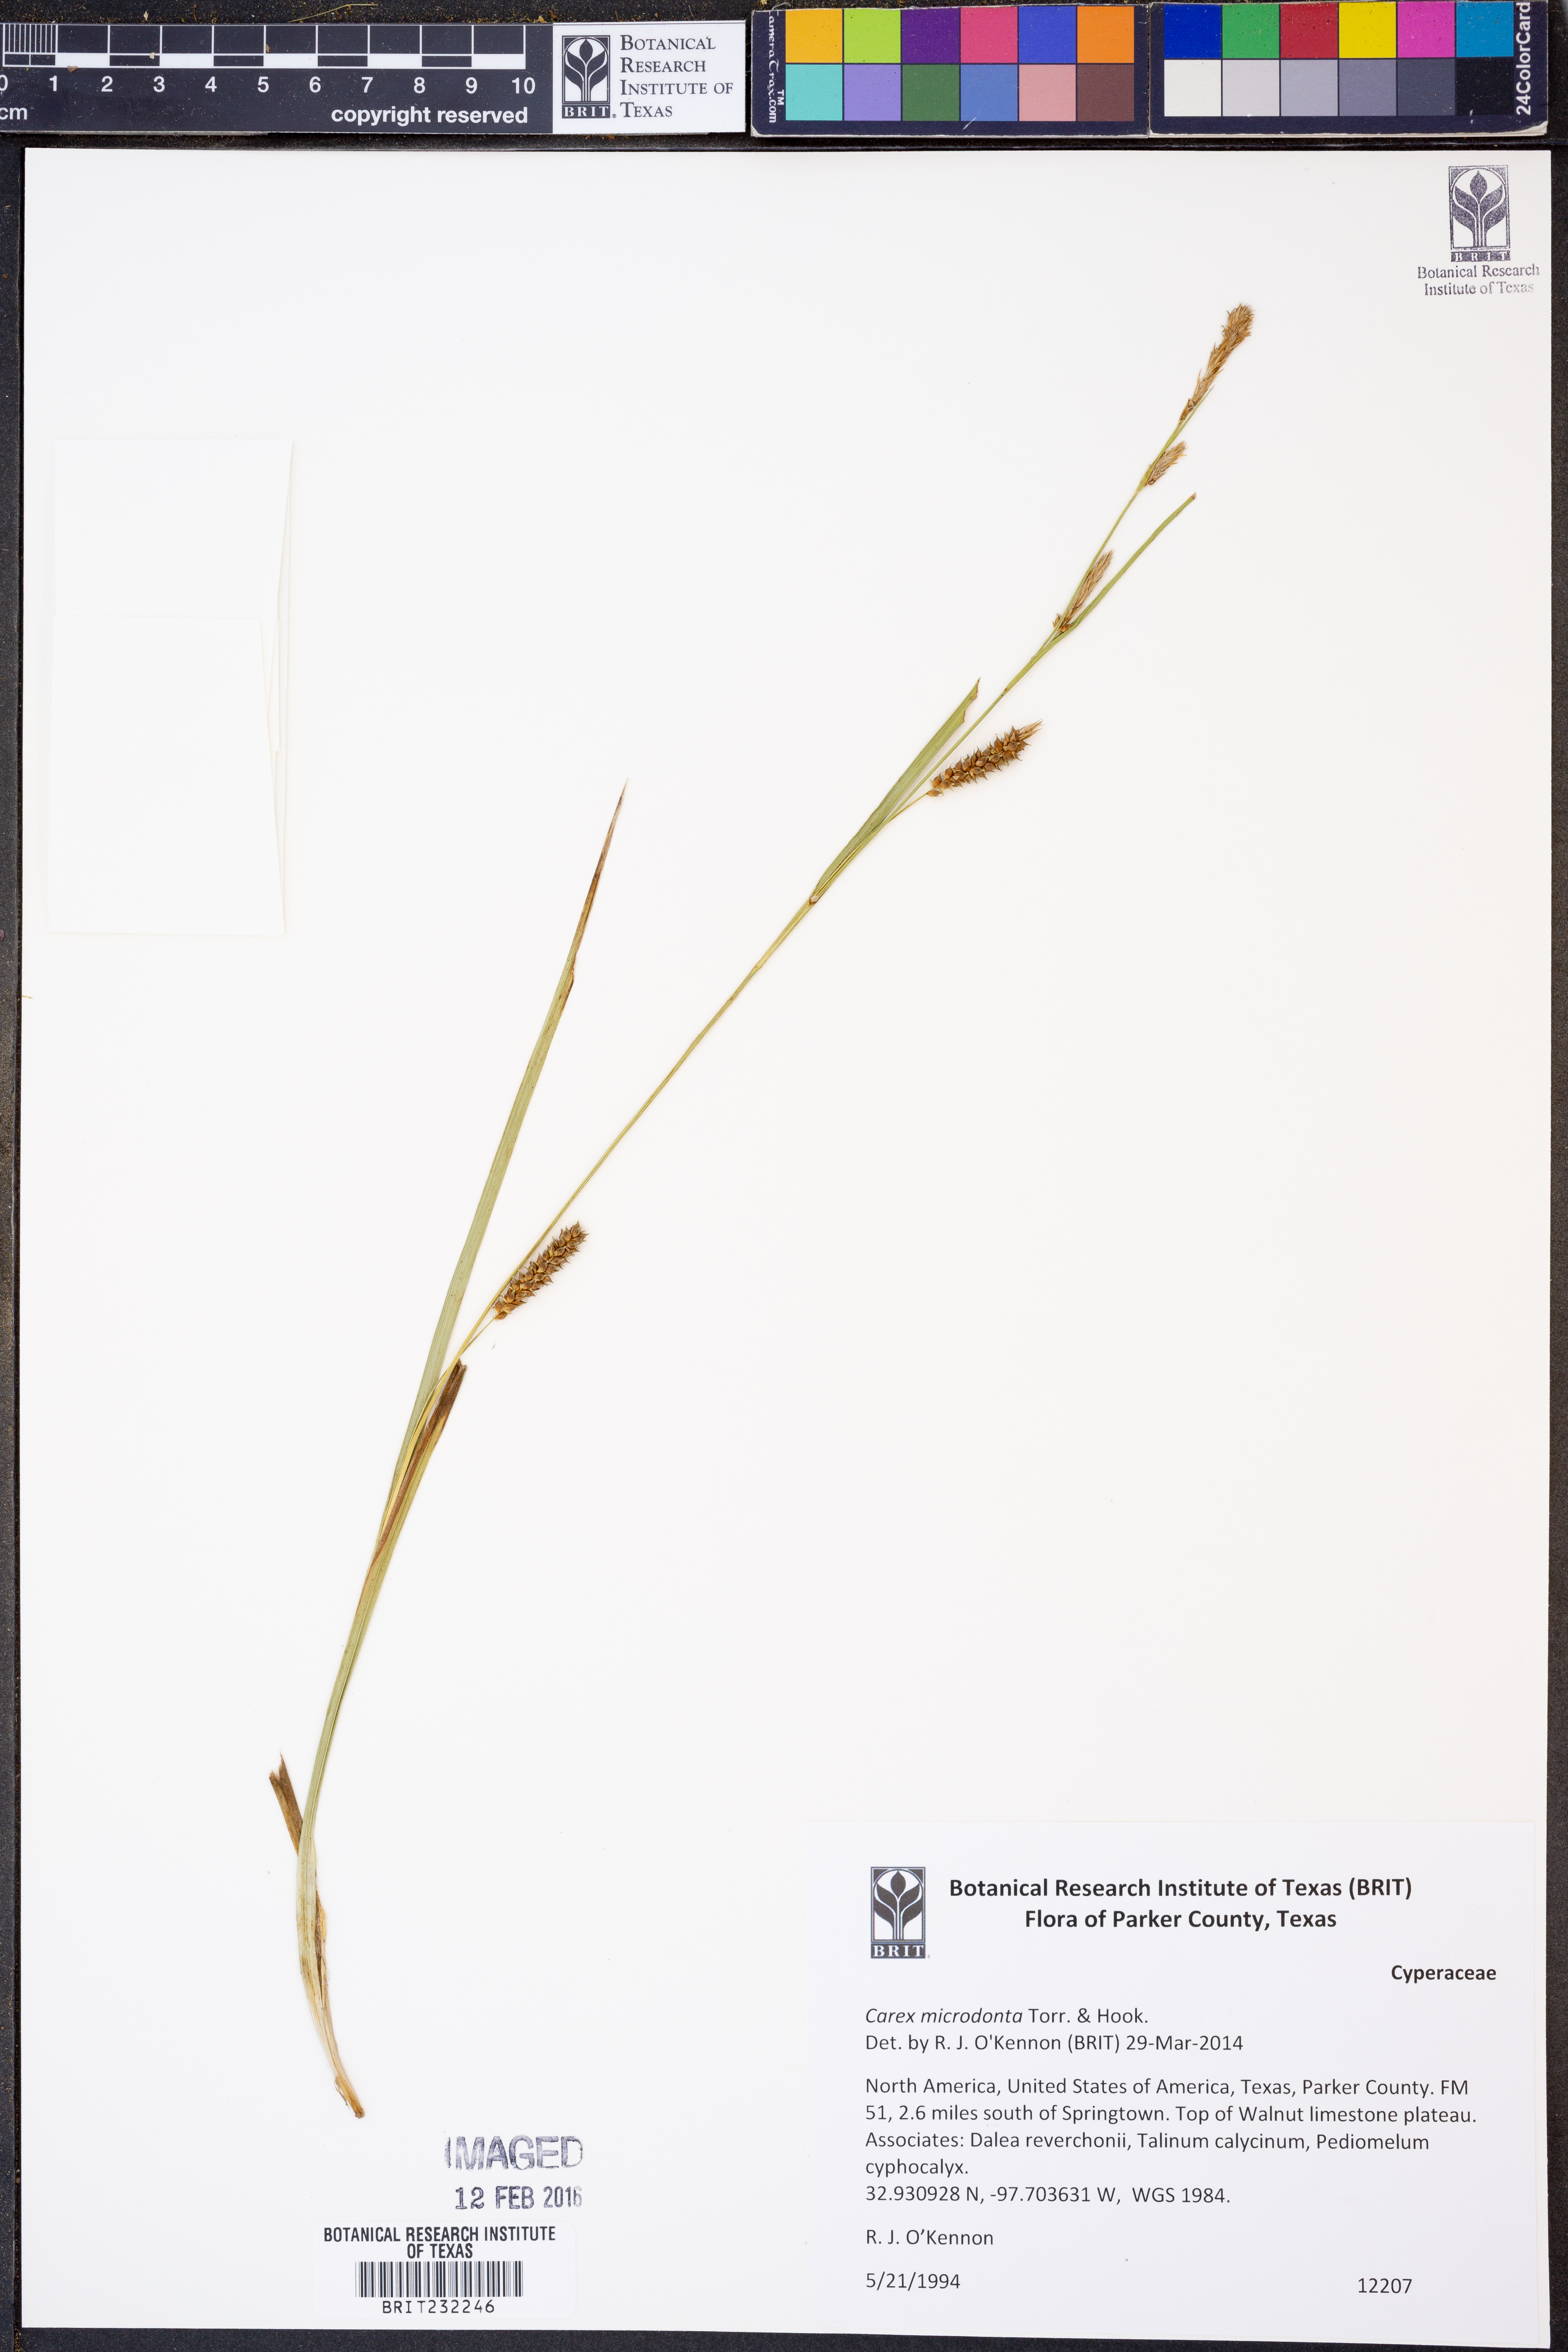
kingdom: Plantae
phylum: Tracheophyta
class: Liliopsida
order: Poales
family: Cyperaceae
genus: Carex
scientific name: Carex microdonta
